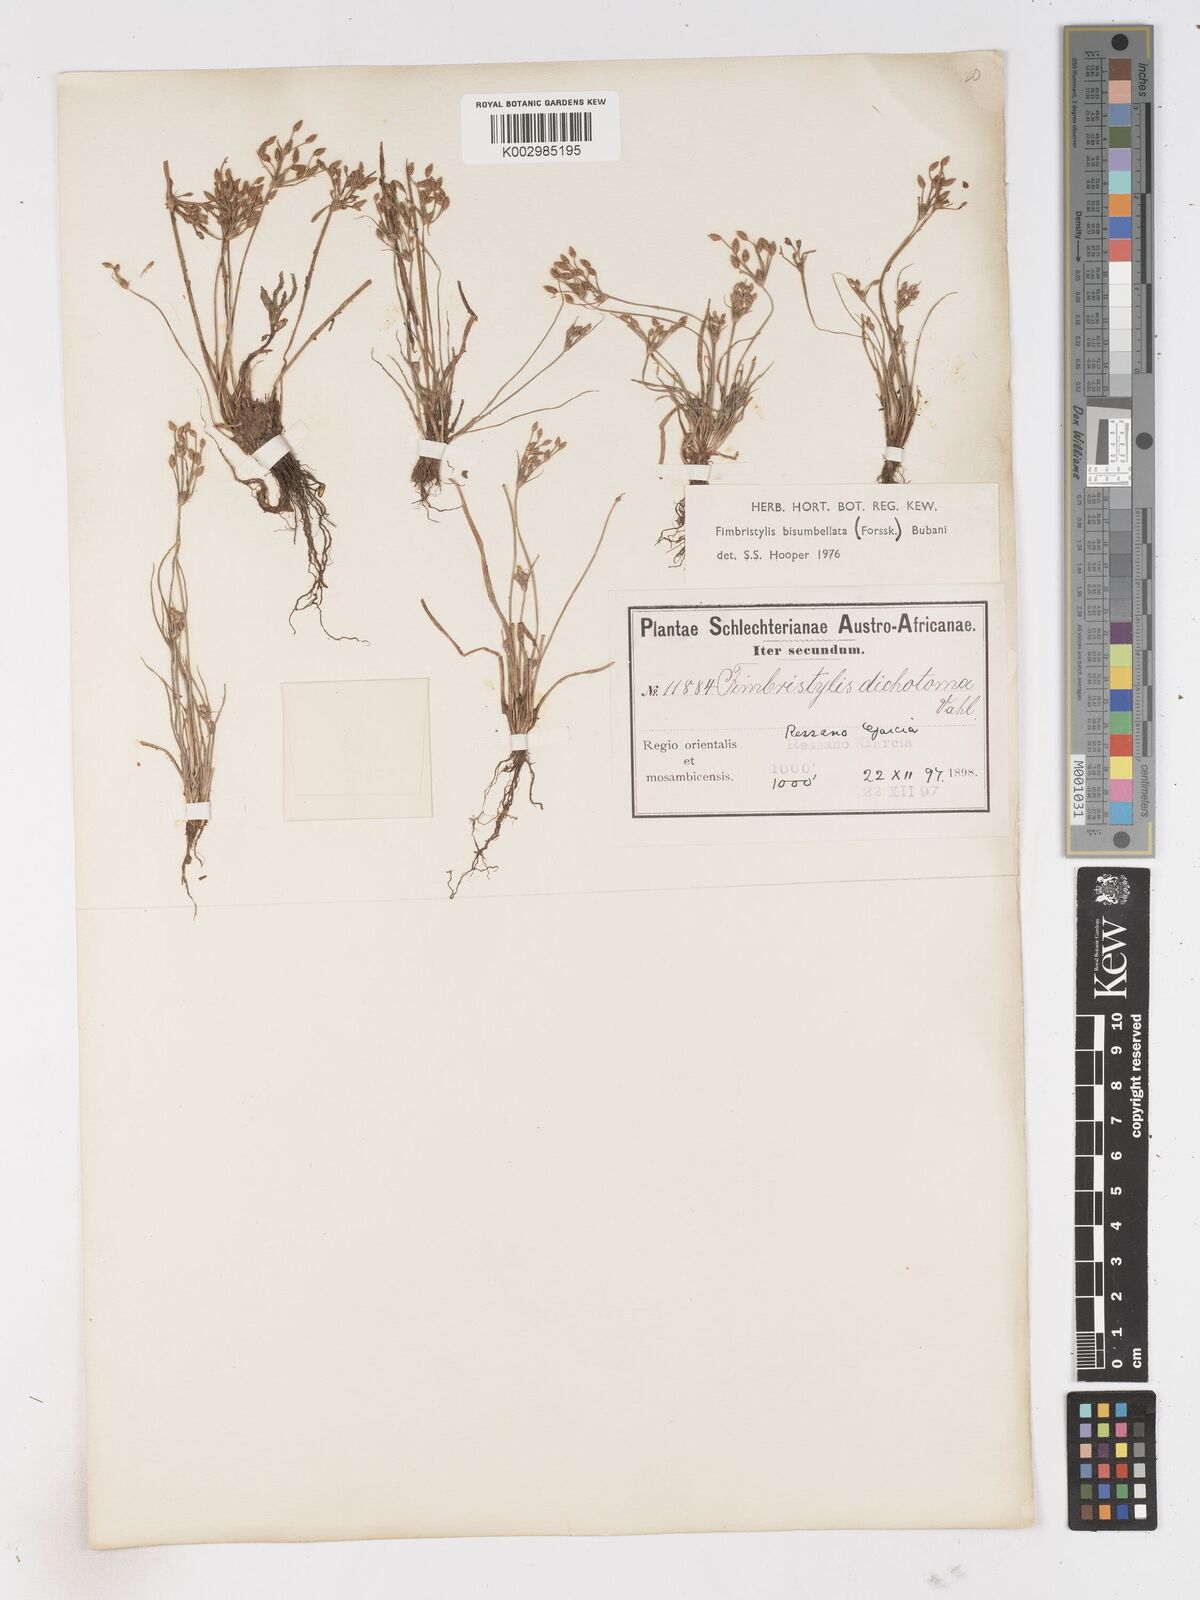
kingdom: Plantae
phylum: Tracheophyta
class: Liliopsida
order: Poales
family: Cyperaceae
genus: Fimbristylis
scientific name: Fimbristylis bisumbellata
